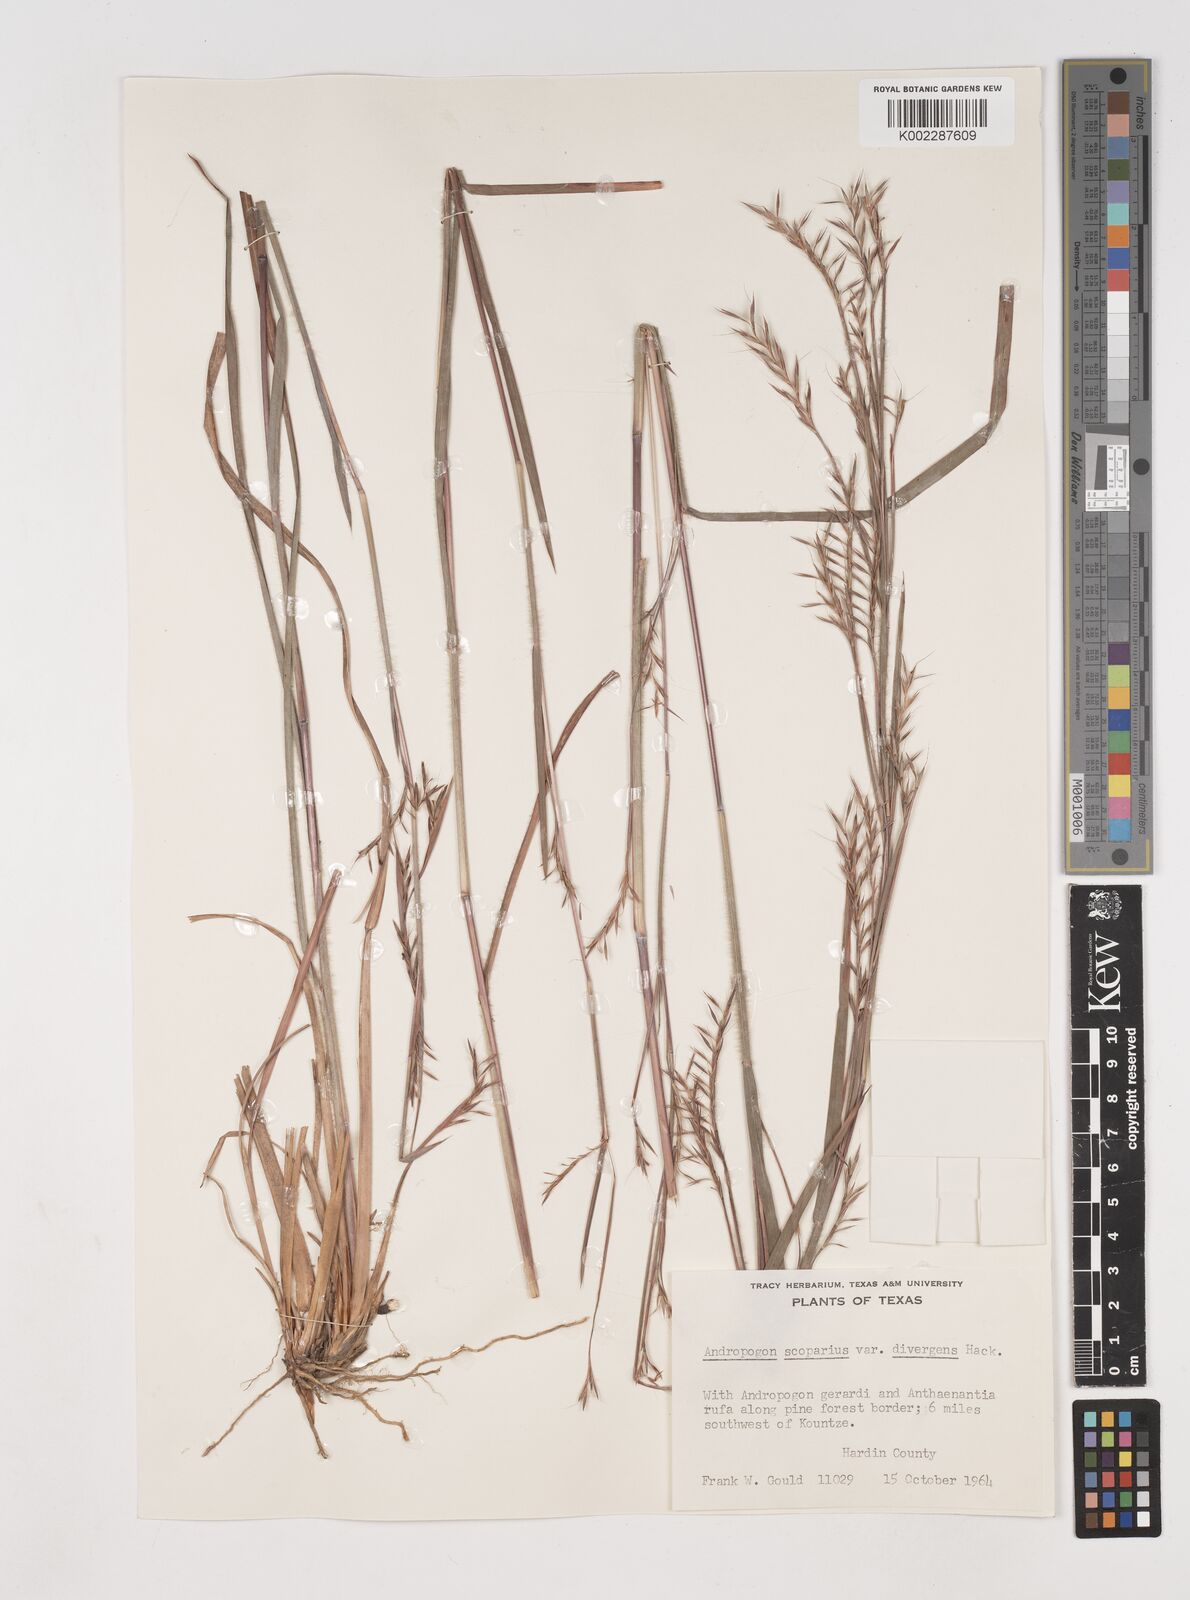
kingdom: Plantae
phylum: Tracheophyta
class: Liliopsida
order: Poales
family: Poaceae
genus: Schizachyrium
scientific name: Schizachyrium scoparium
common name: Little bluestem
